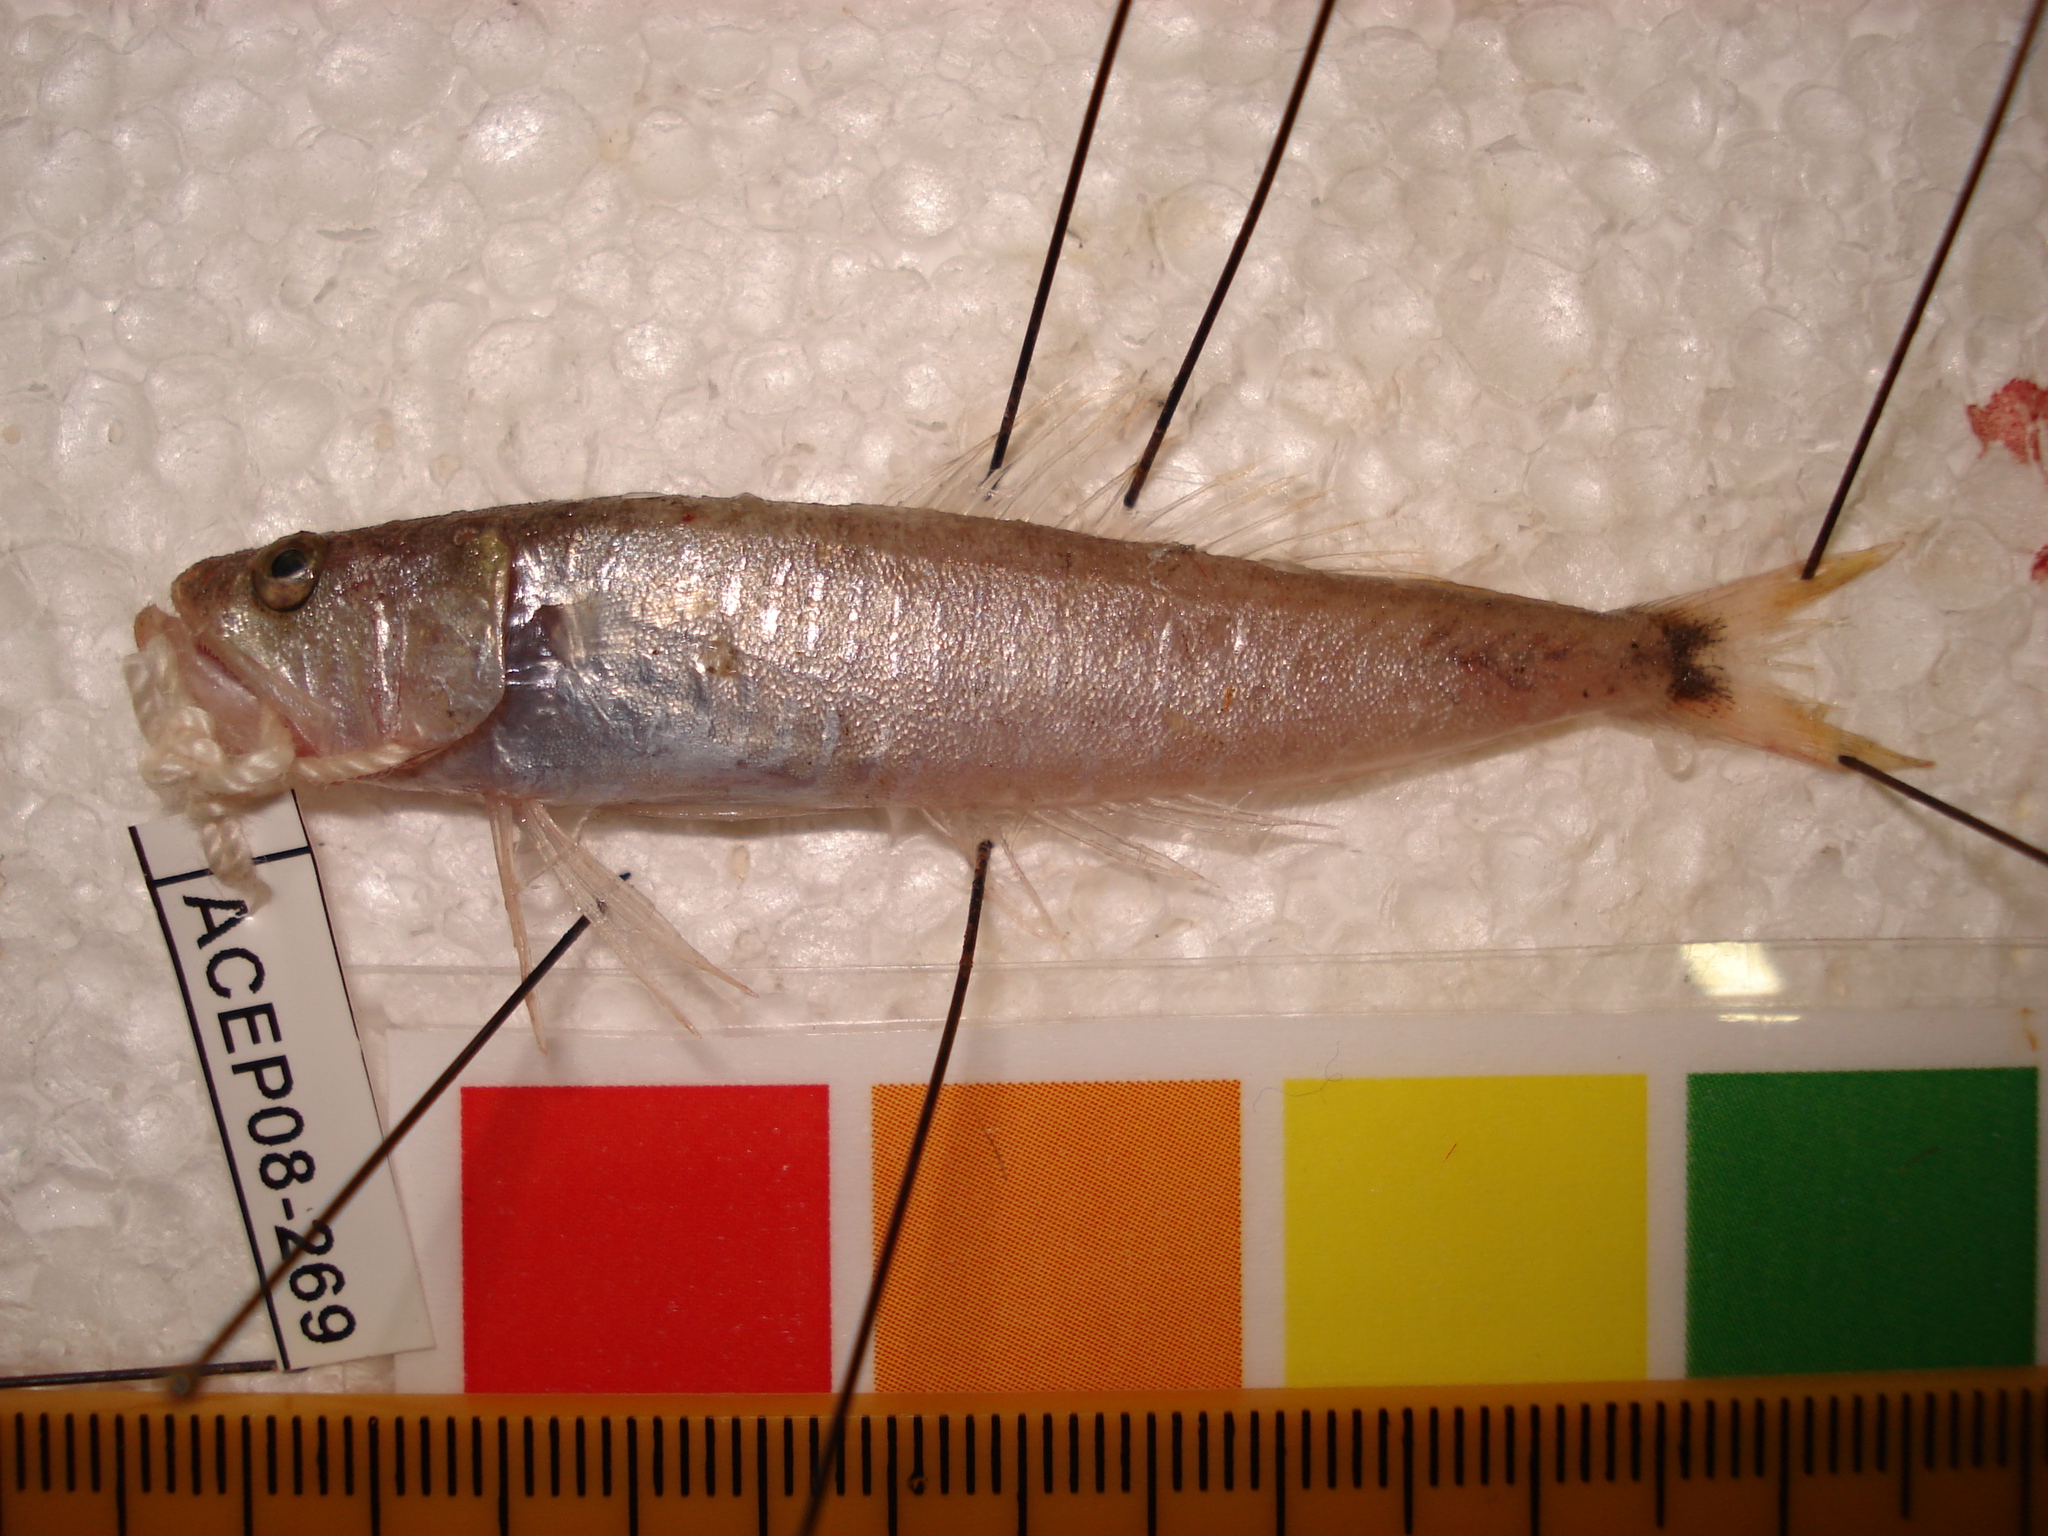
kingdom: Animalia
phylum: Chordata
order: Perciformes
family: Champsodontidae
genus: Champsodon
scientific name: Champsodon sechellensis
